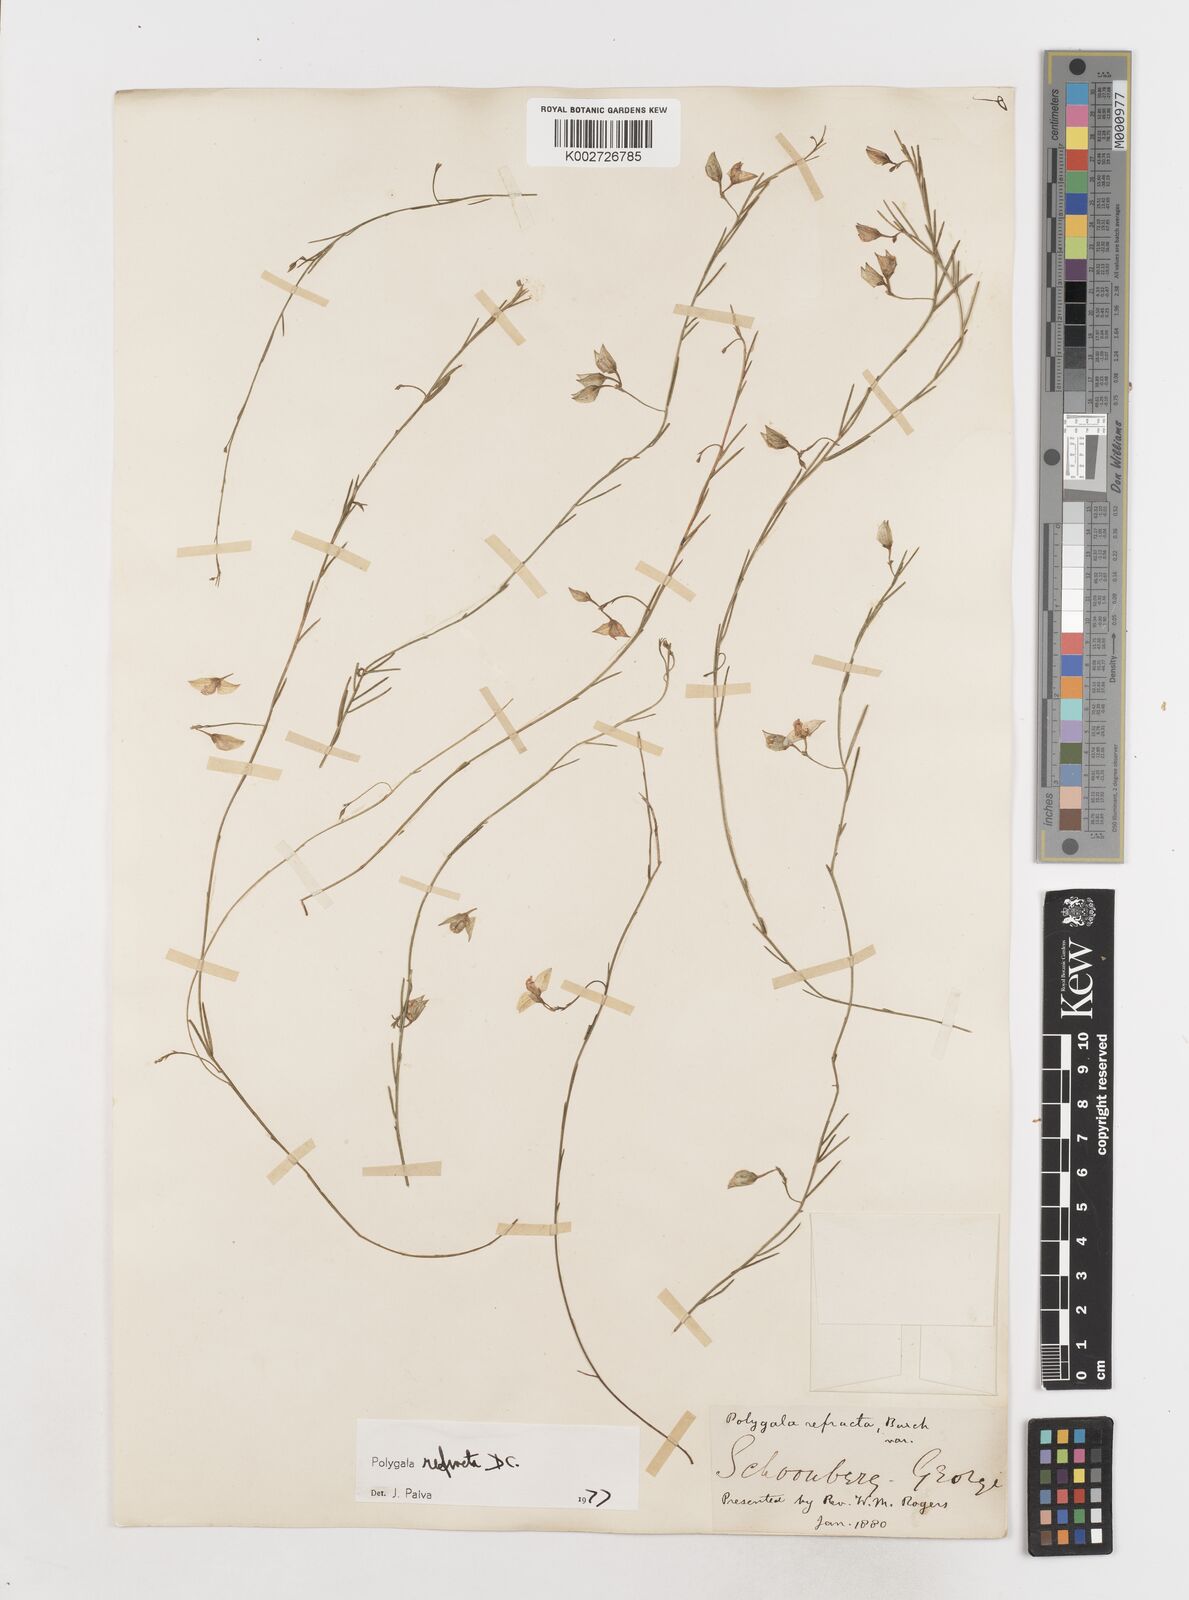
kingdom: Plantae
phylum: Tracheophyta
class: Magnoliopsida
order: Fabales
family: Polygalaceae
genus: Polygala
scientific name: Polygala refracta
